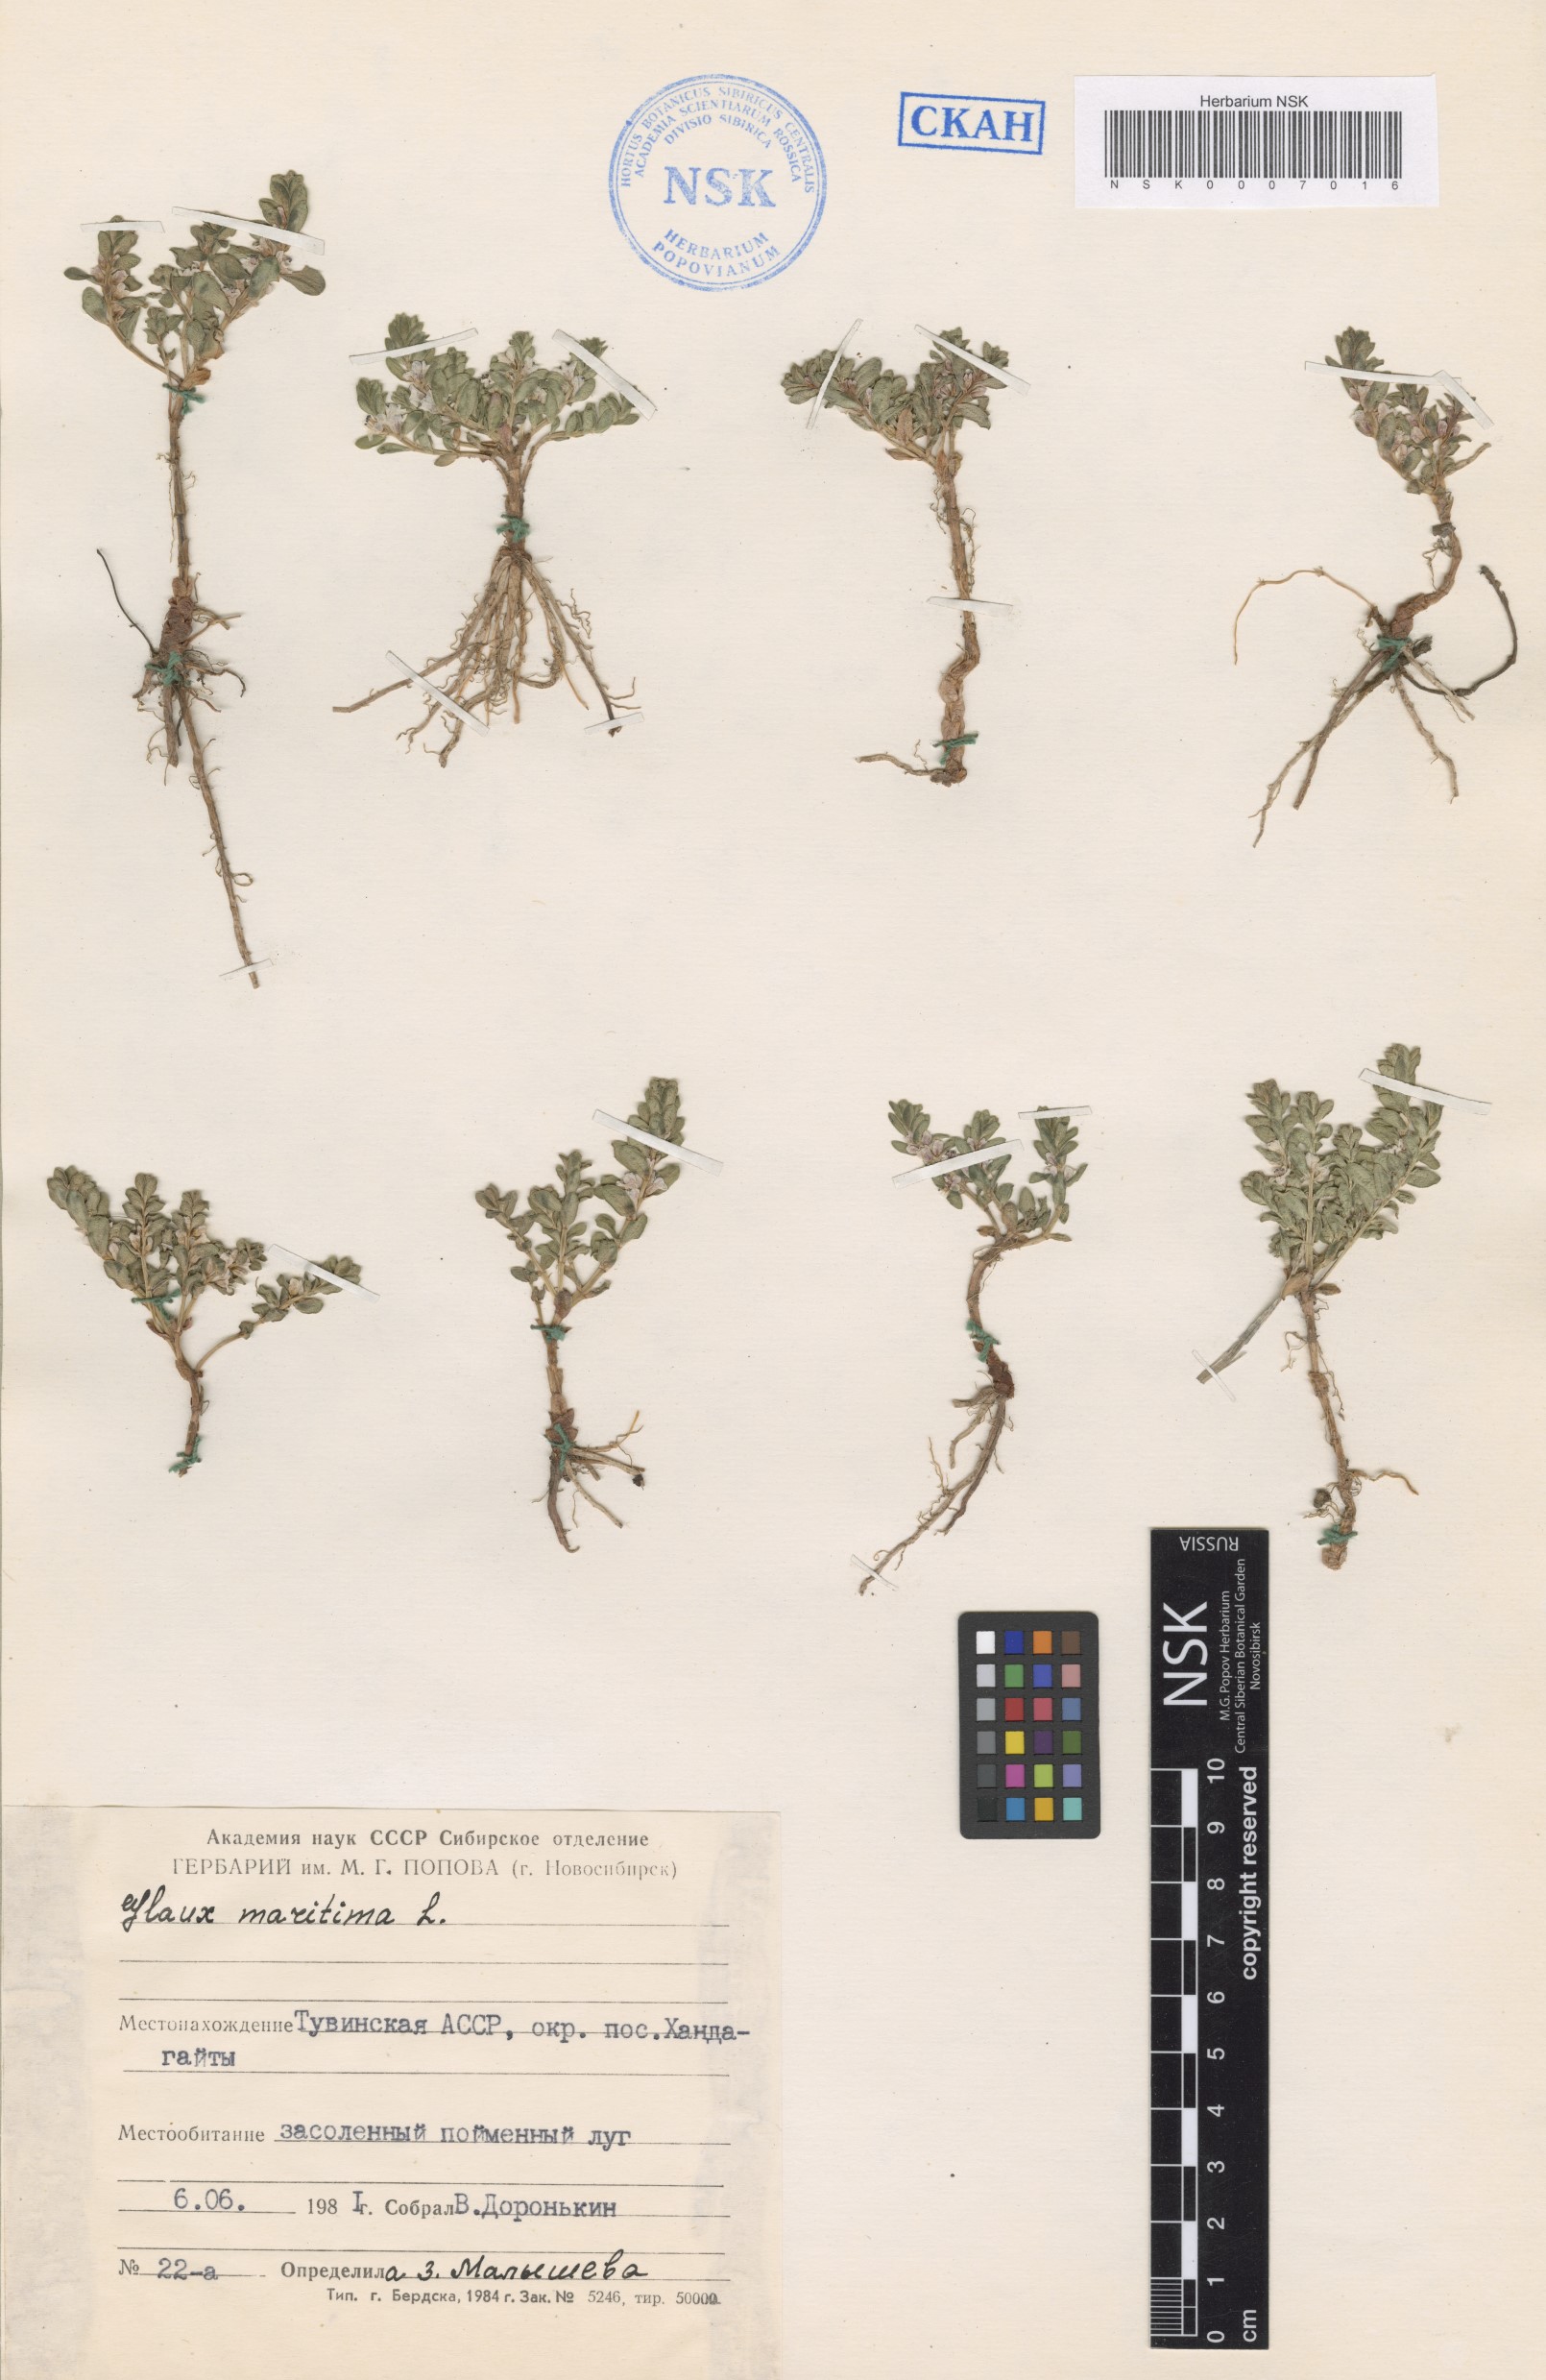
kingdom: Plantae
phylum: Tracheophyta
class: Magnoliopsida
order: Ericales
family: Primulaceae
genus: Lysimachia
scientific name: Lysimachia maritima
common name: Sea milkwort
